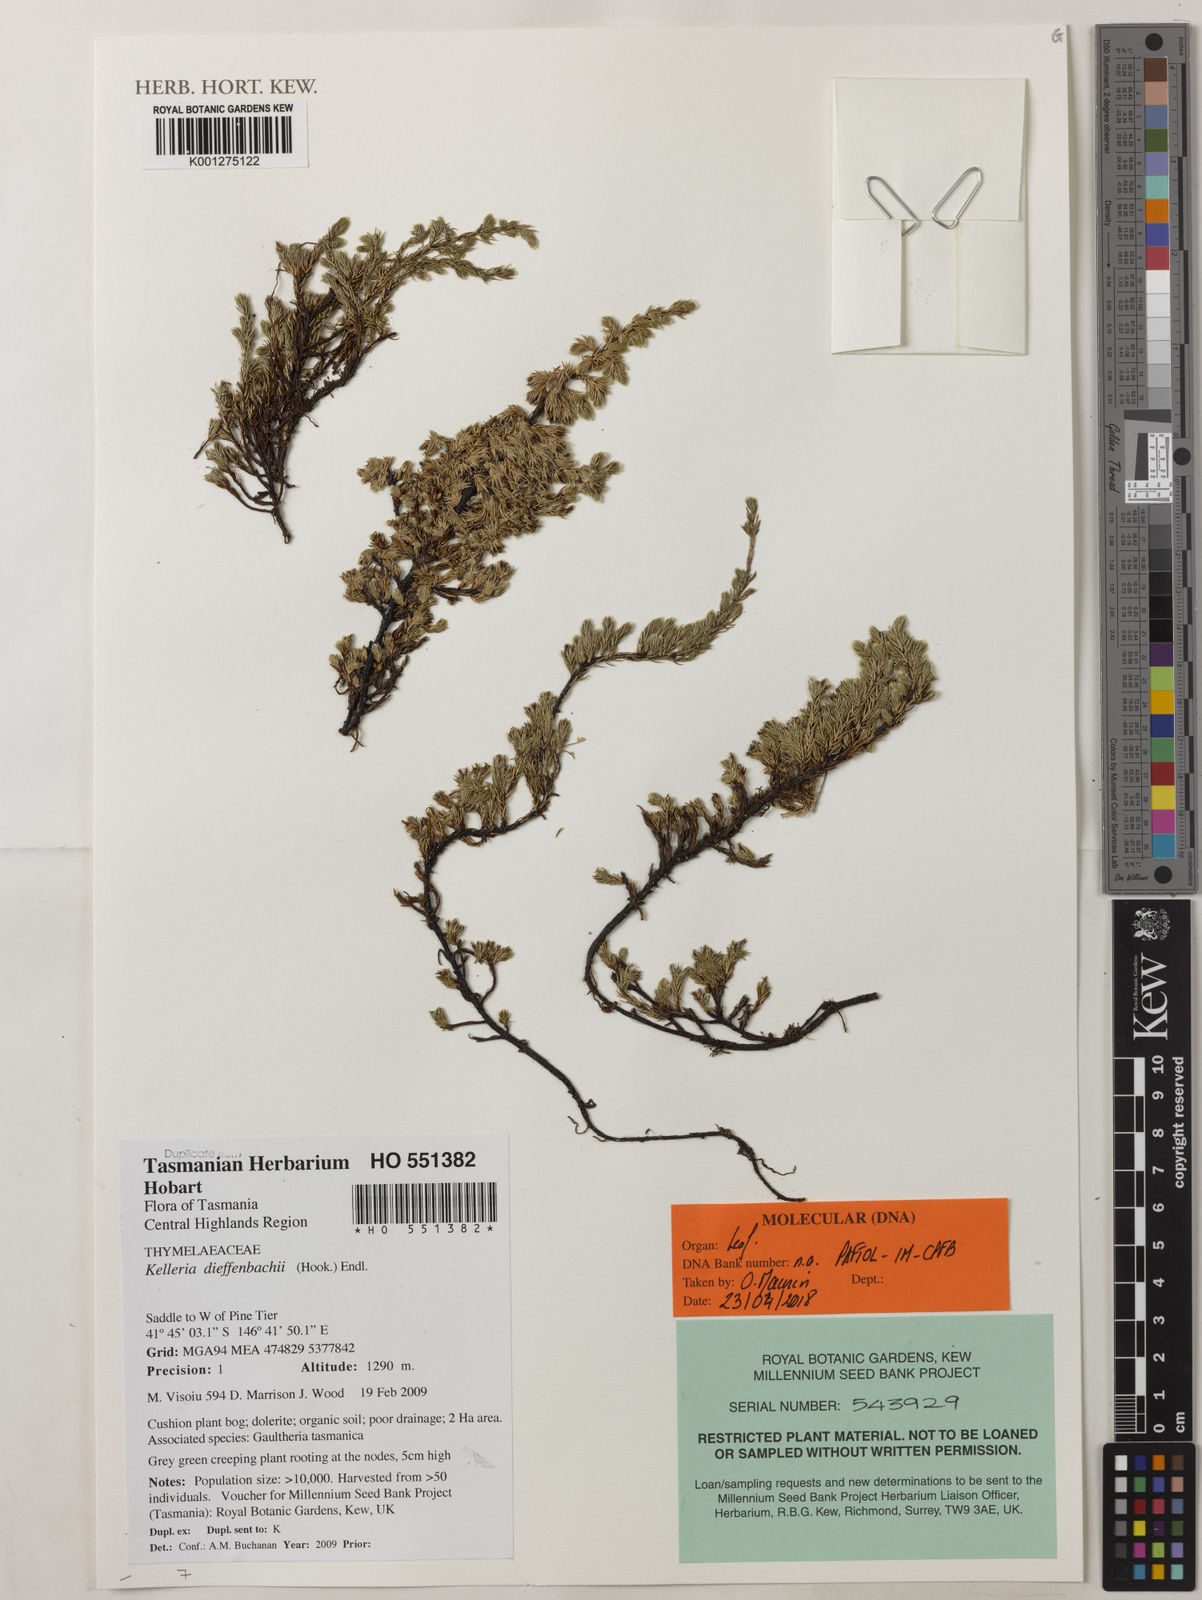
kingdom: Plantae
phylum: Tracheophyta
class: Magnoliopsida
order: Malvales
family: Thymelaeaceae
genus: Kelleria
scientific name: Kelleria dieffenbachii
